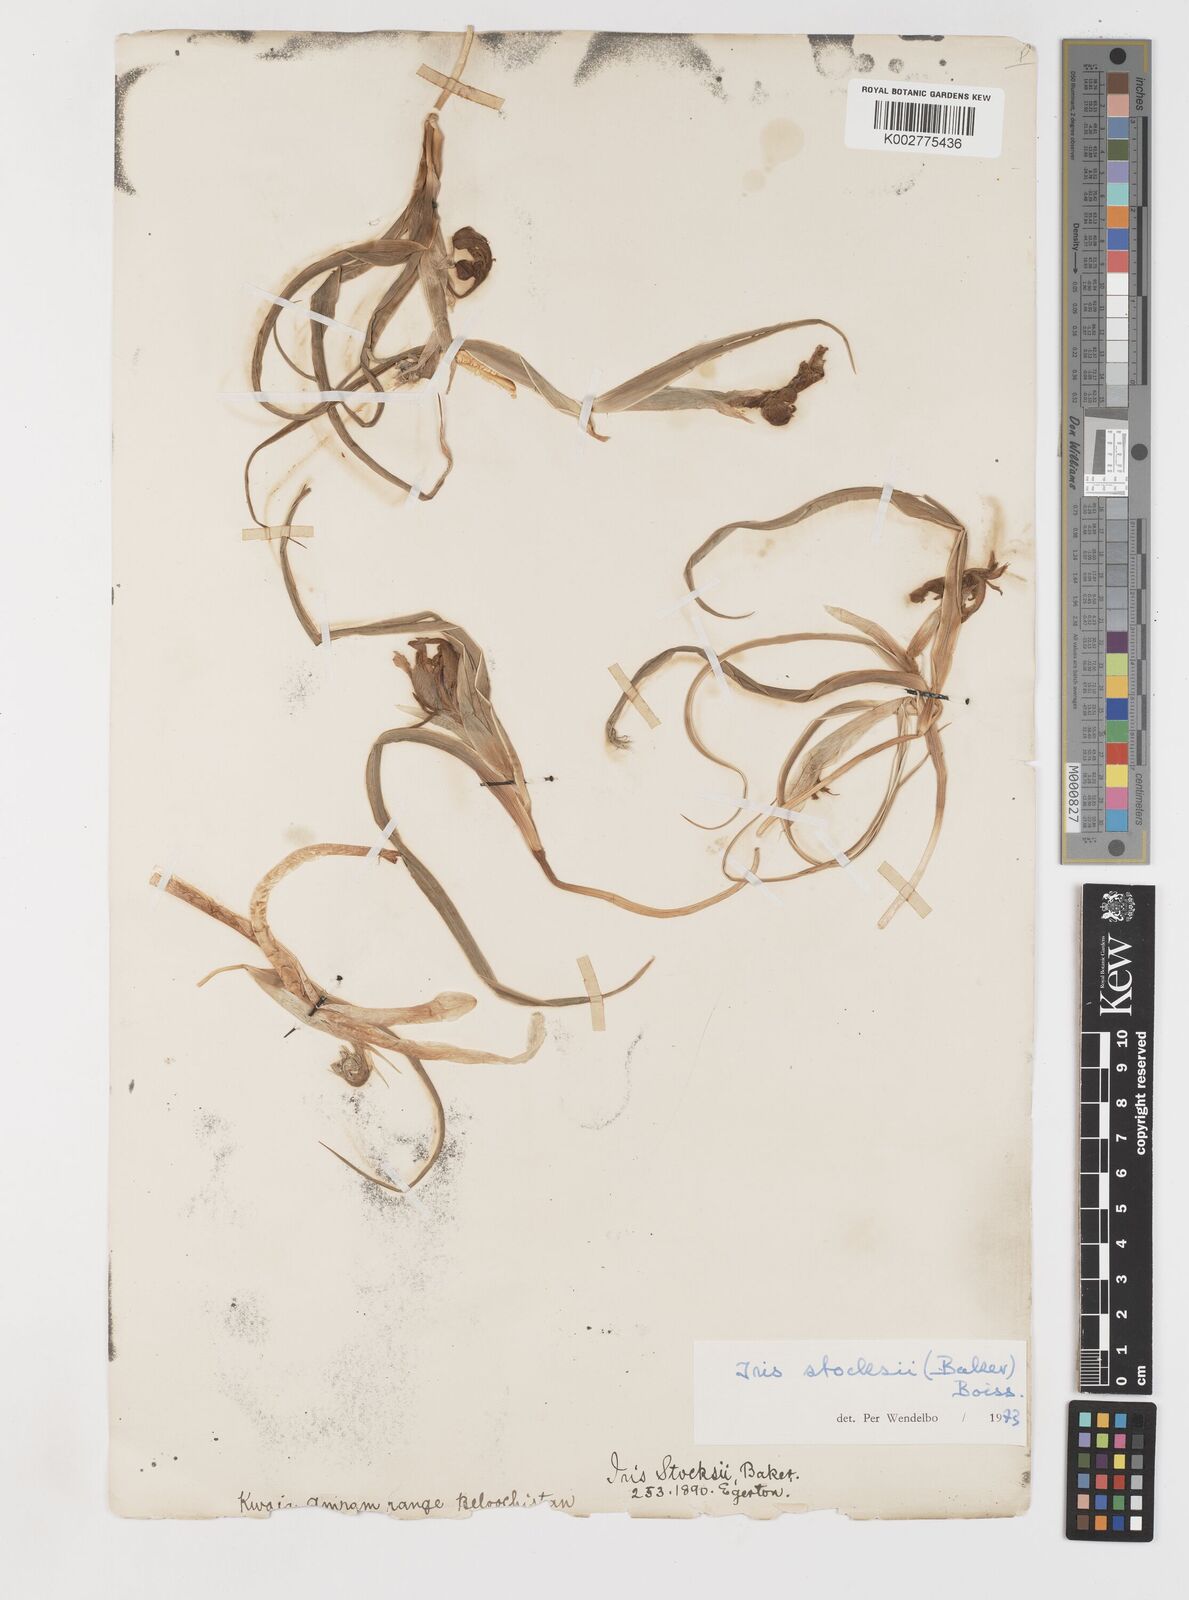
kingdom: Plantae
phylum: Tracheophyta
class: Liliopsida
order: Asparagales
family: Iridaceae
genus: Iris
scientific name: Iris stocksii
